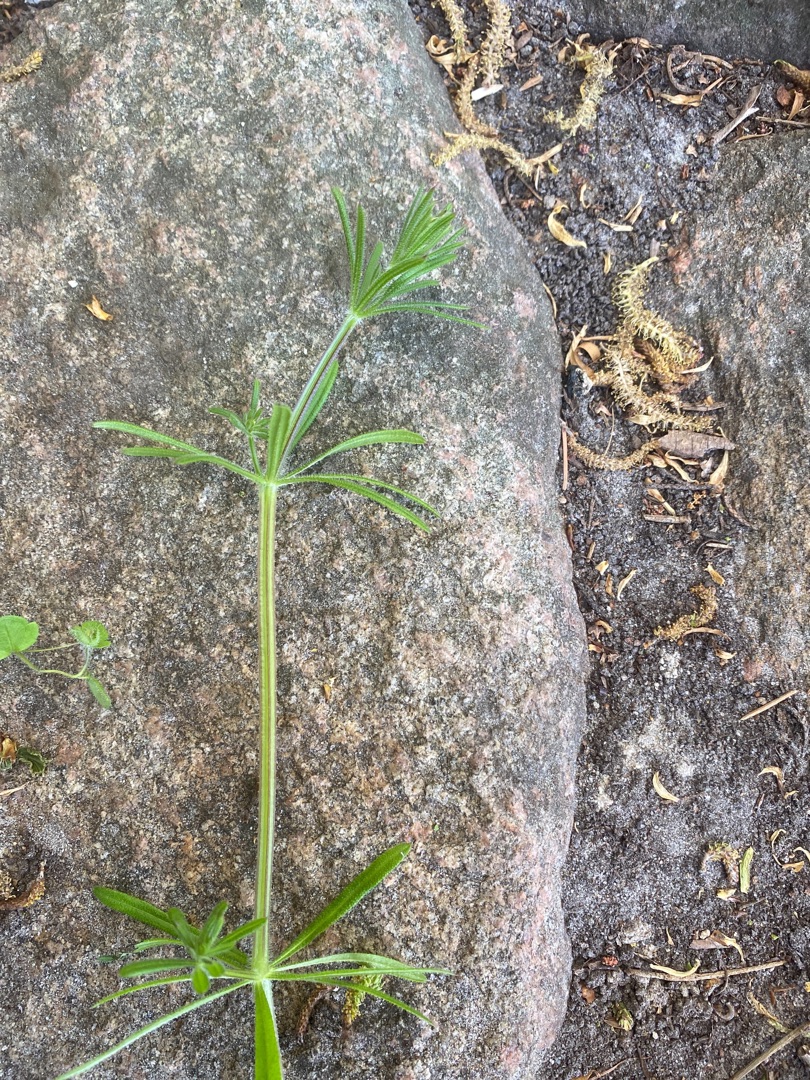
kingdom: Plantae
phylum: Tracheophyta
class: Magnoliopsida
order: Gentianales
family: Rubiaceae
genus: Galium
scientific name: Galium aparine
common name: Burre-snerre
